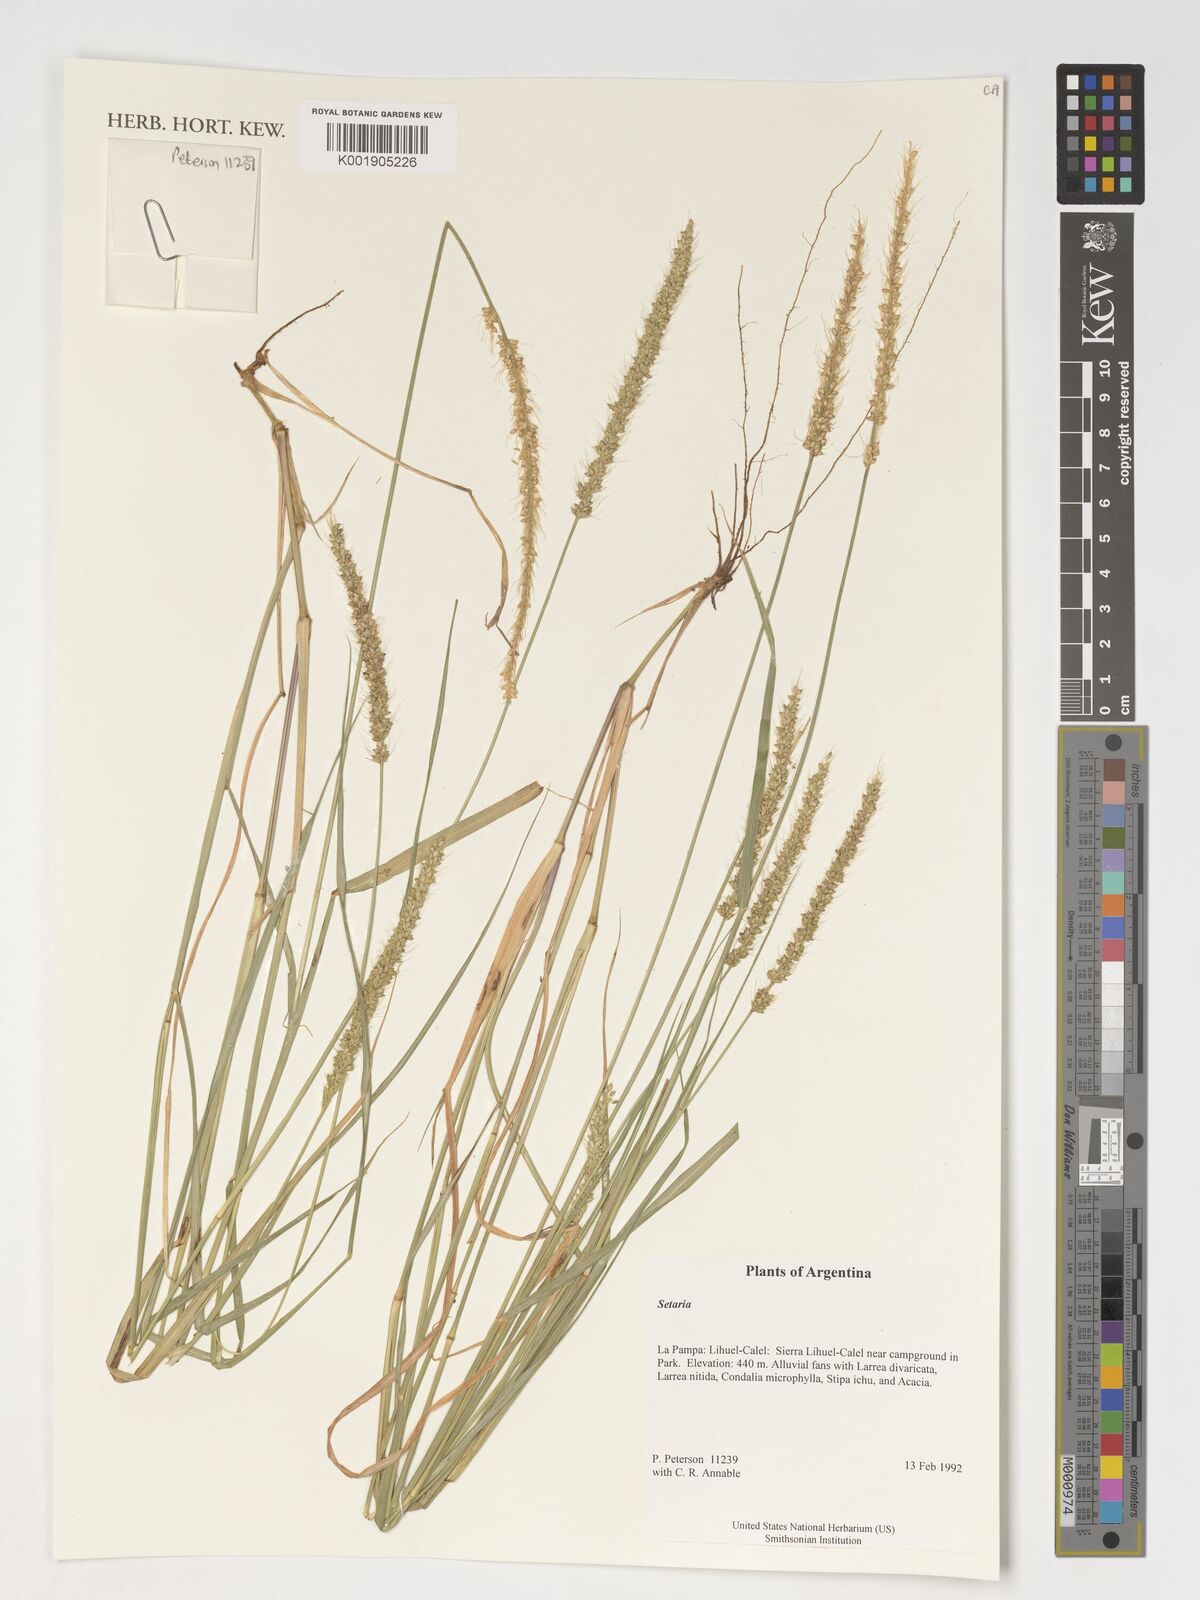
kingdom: Plantae
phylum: Tracheophyta
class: Liliopsida
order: Poales
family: Poaceae
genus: Setaria
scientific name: Setaria
